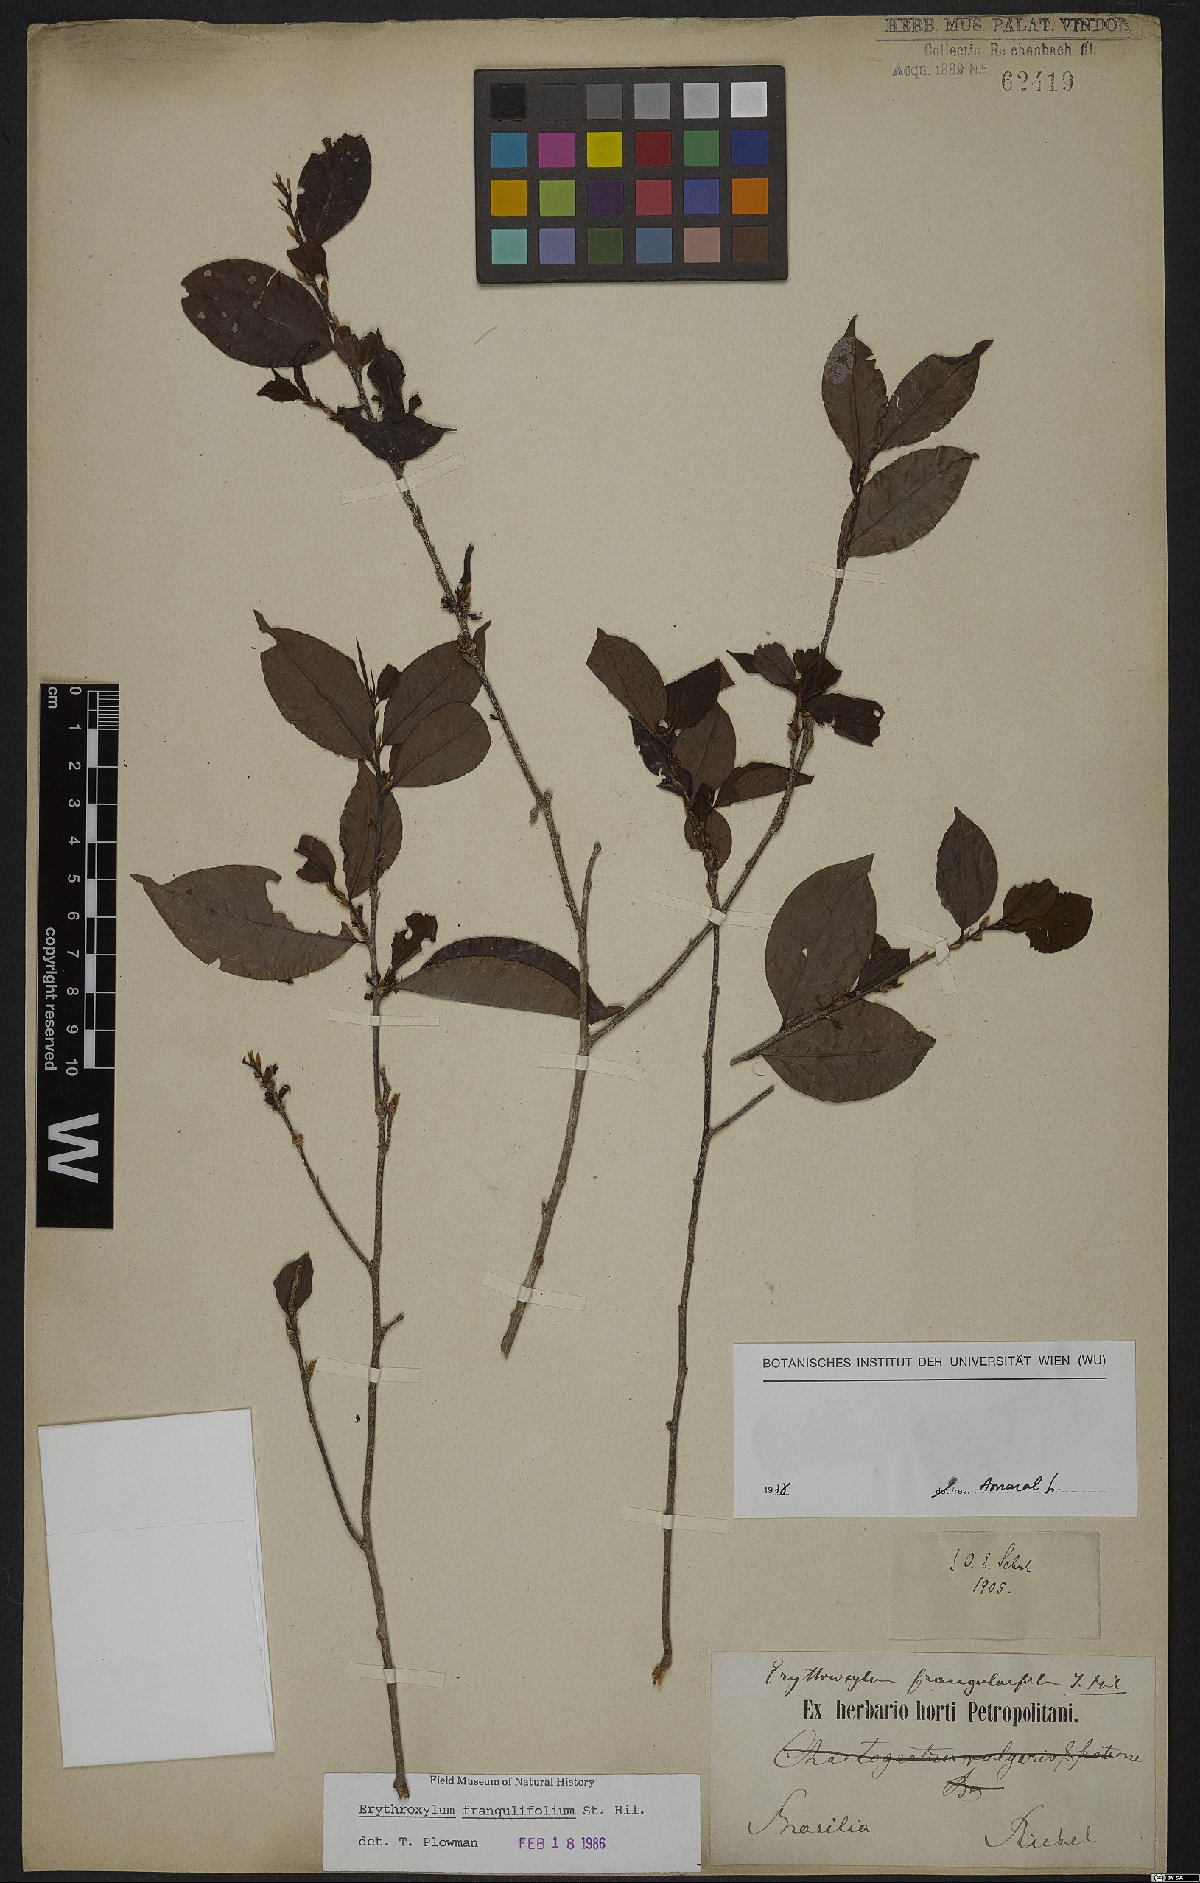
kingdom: Plantae
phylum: Tracheophyta
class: Magnoliopsida
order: Malpighiales
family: Erythroxylaceae
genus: Erythroxylum
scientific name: Erythroxylum frangulifolium
